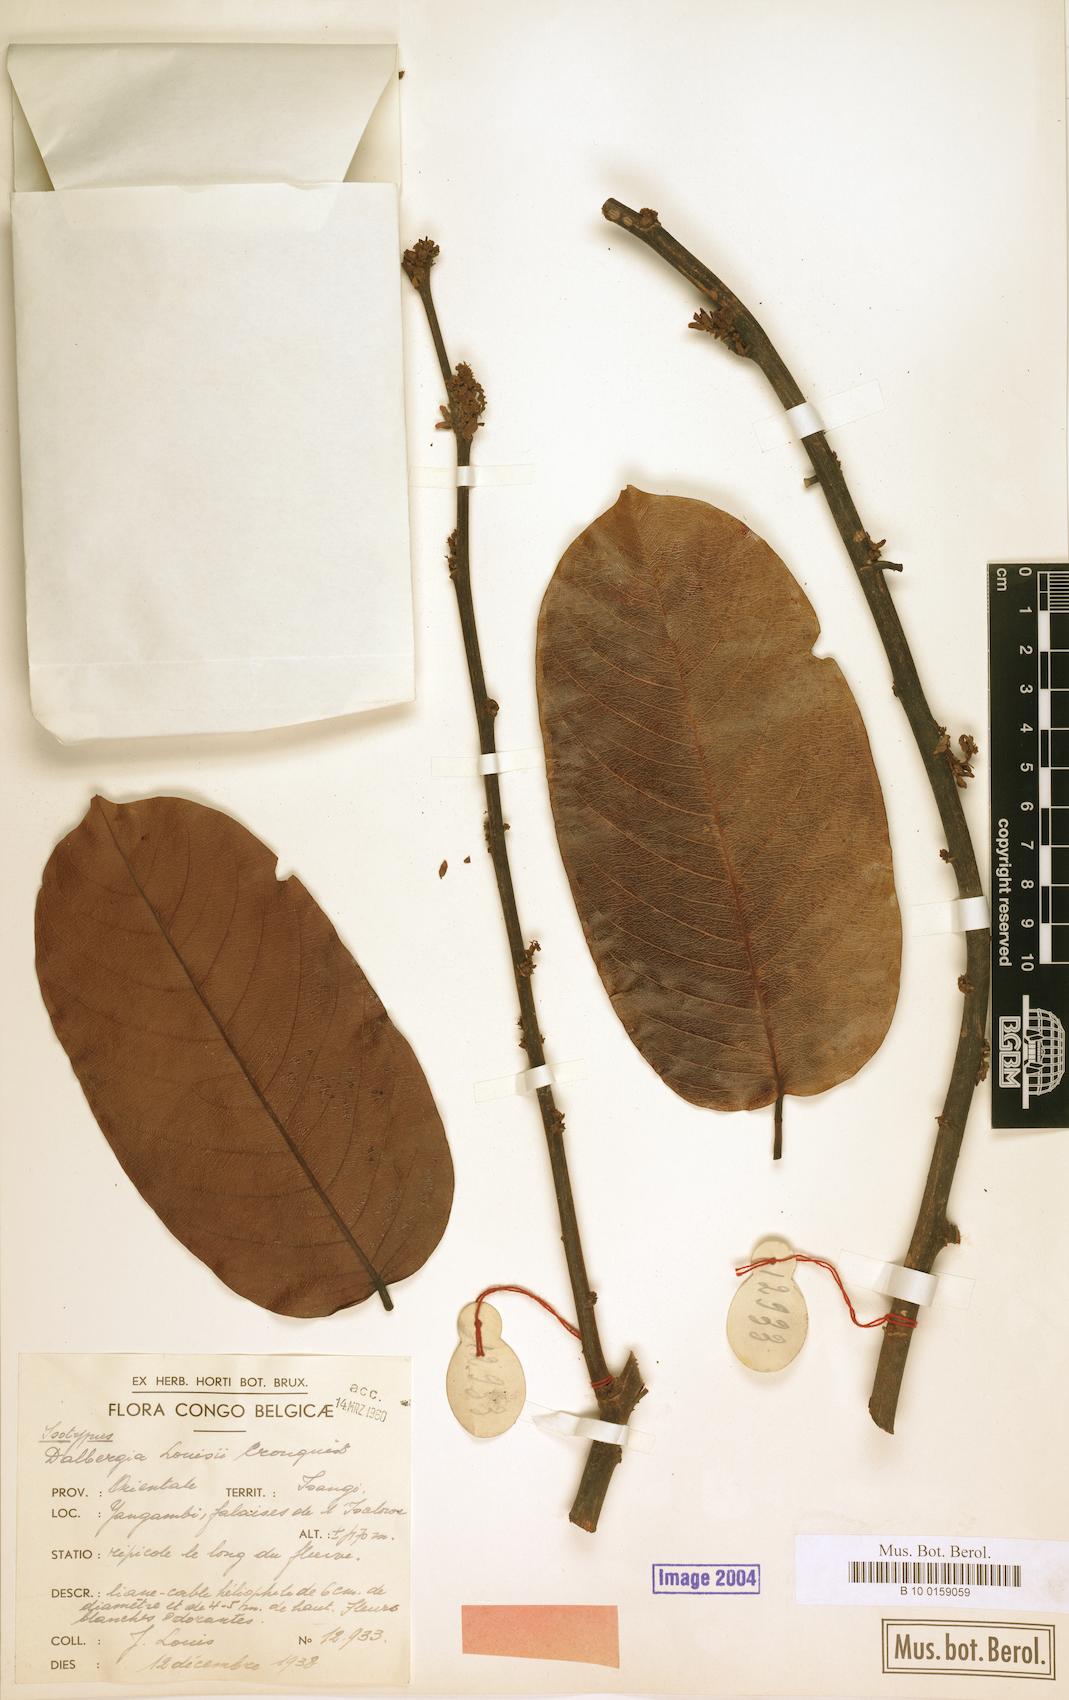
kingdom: Plantae
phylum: Tracheophyta
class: Magnoliopsida
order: Fabales
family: Fabaceae
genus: Dalbergia
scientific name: Dalbergia louisii
